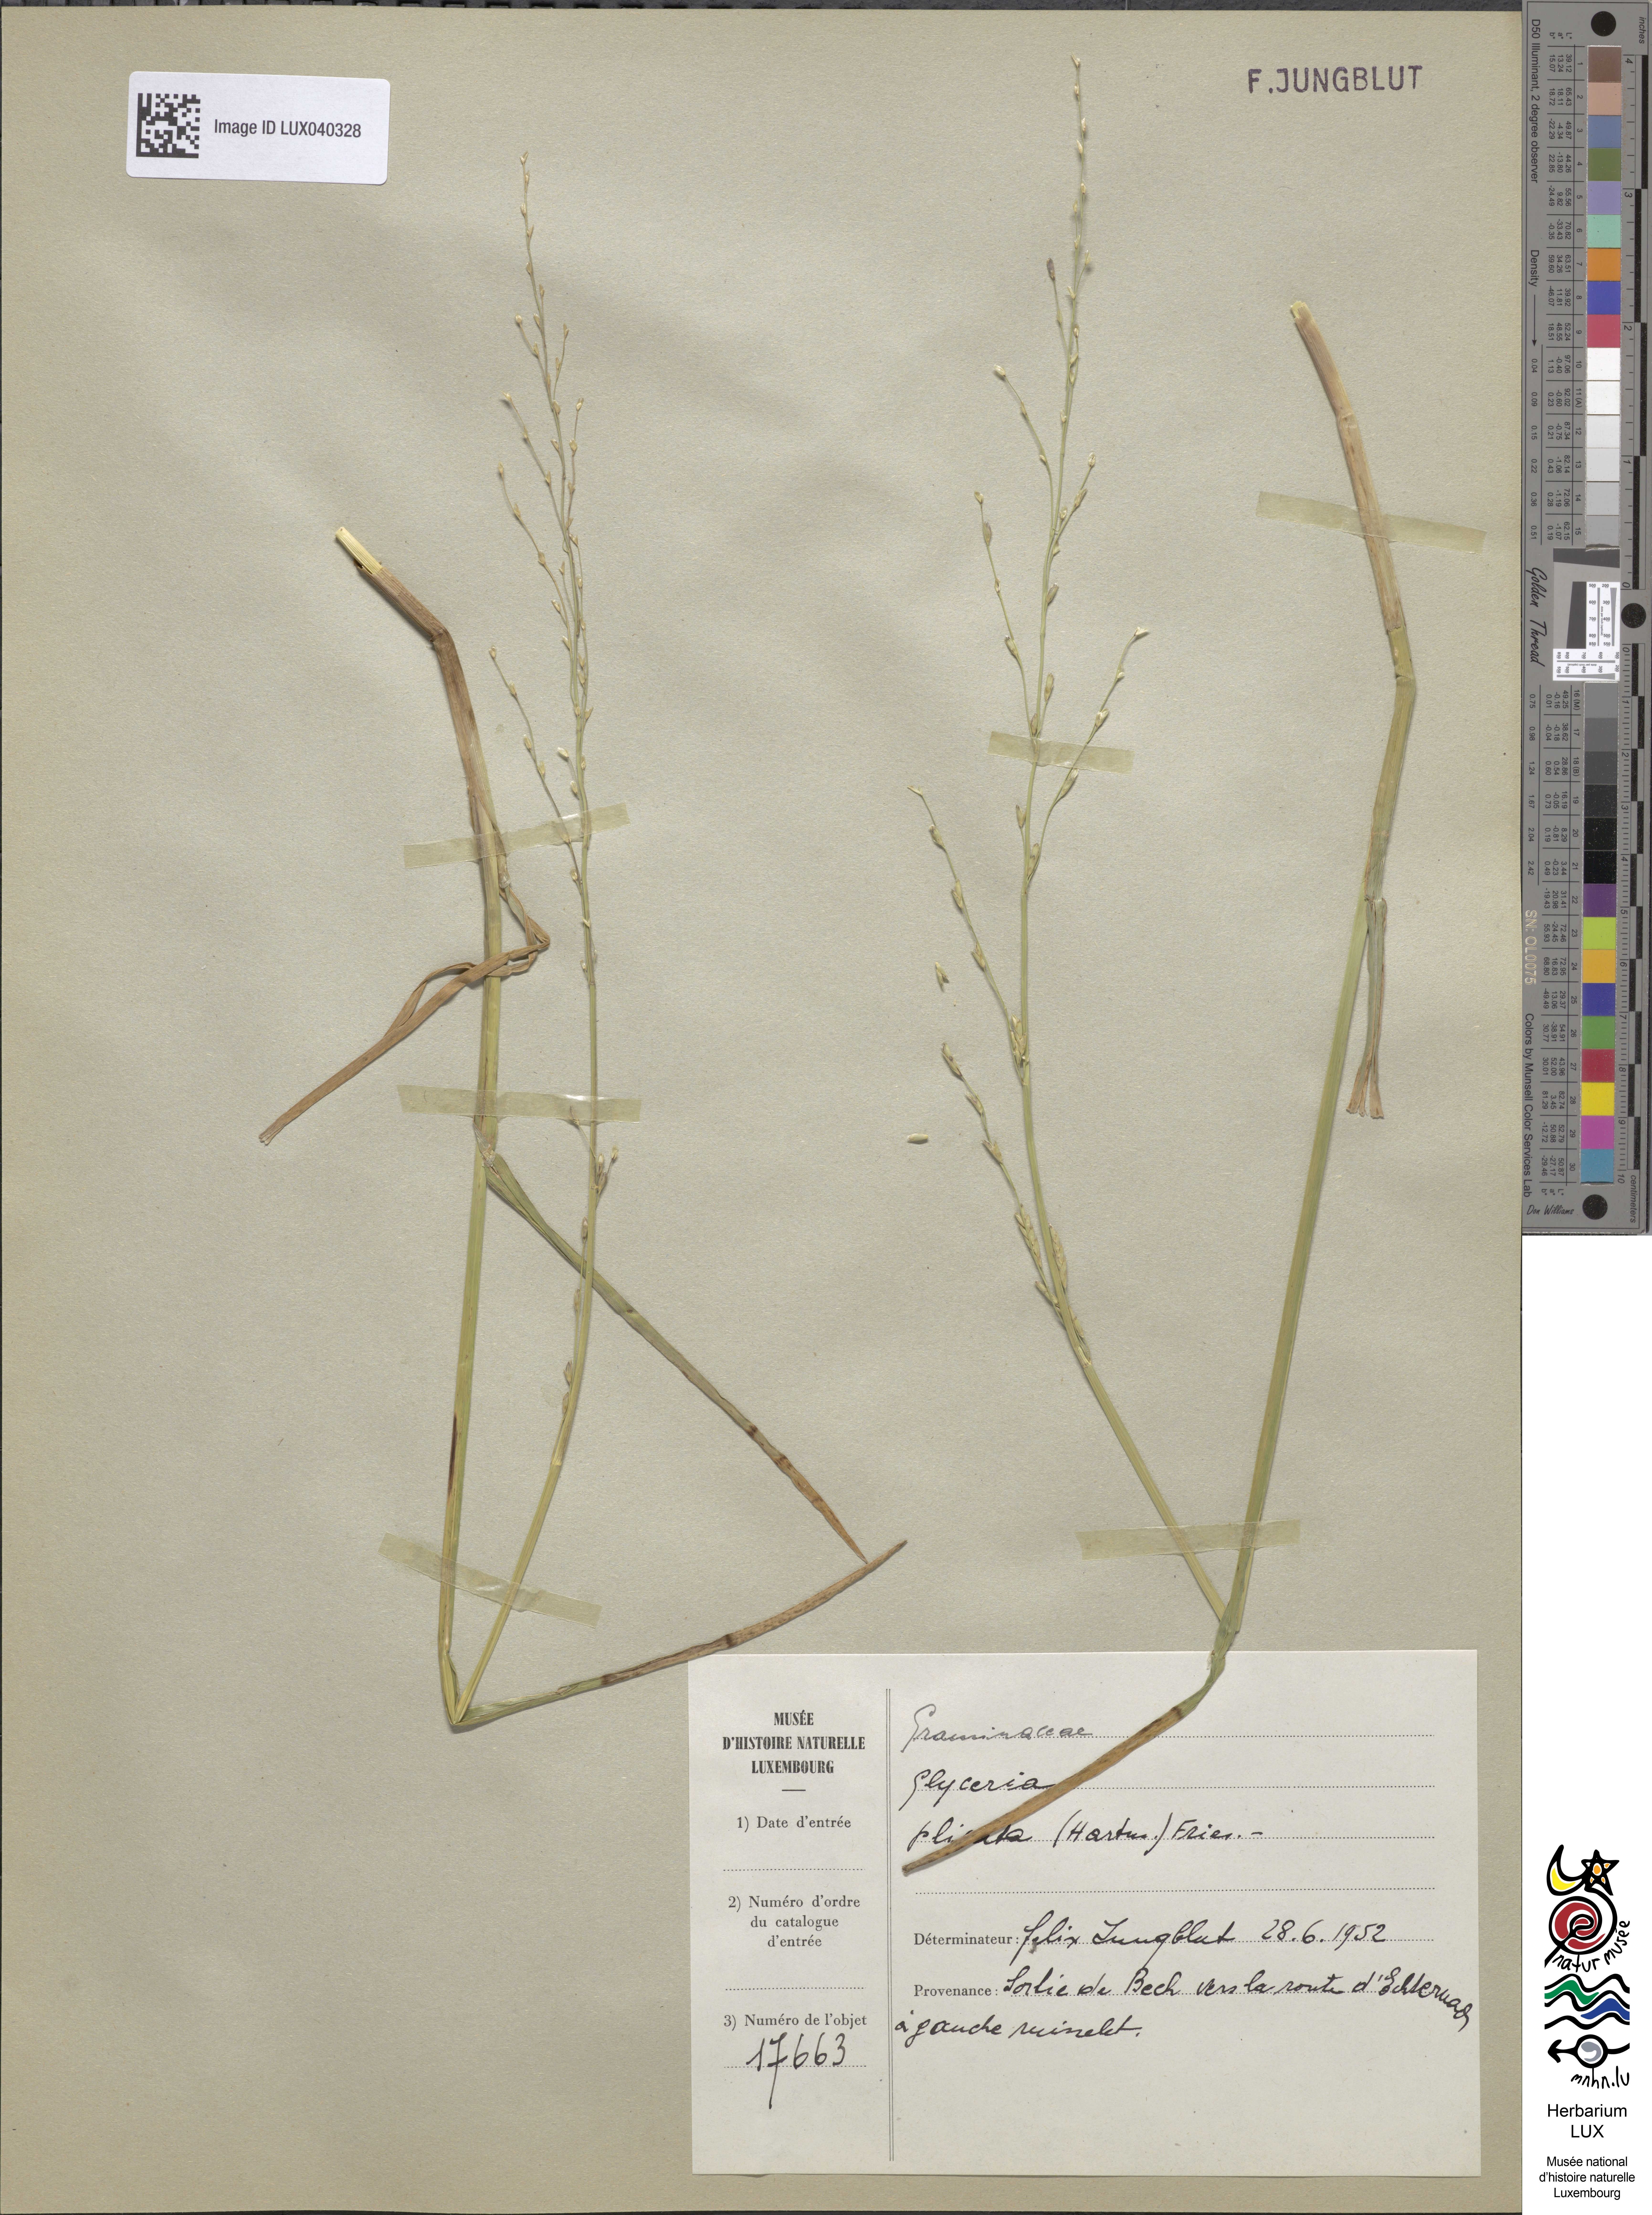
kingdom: Plantae
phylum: Tracheophyta
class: Liliopsida
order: Poales
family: Poaceae
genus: Glyceria
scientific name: Glyceria notata
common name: Plicate sweet-grass
